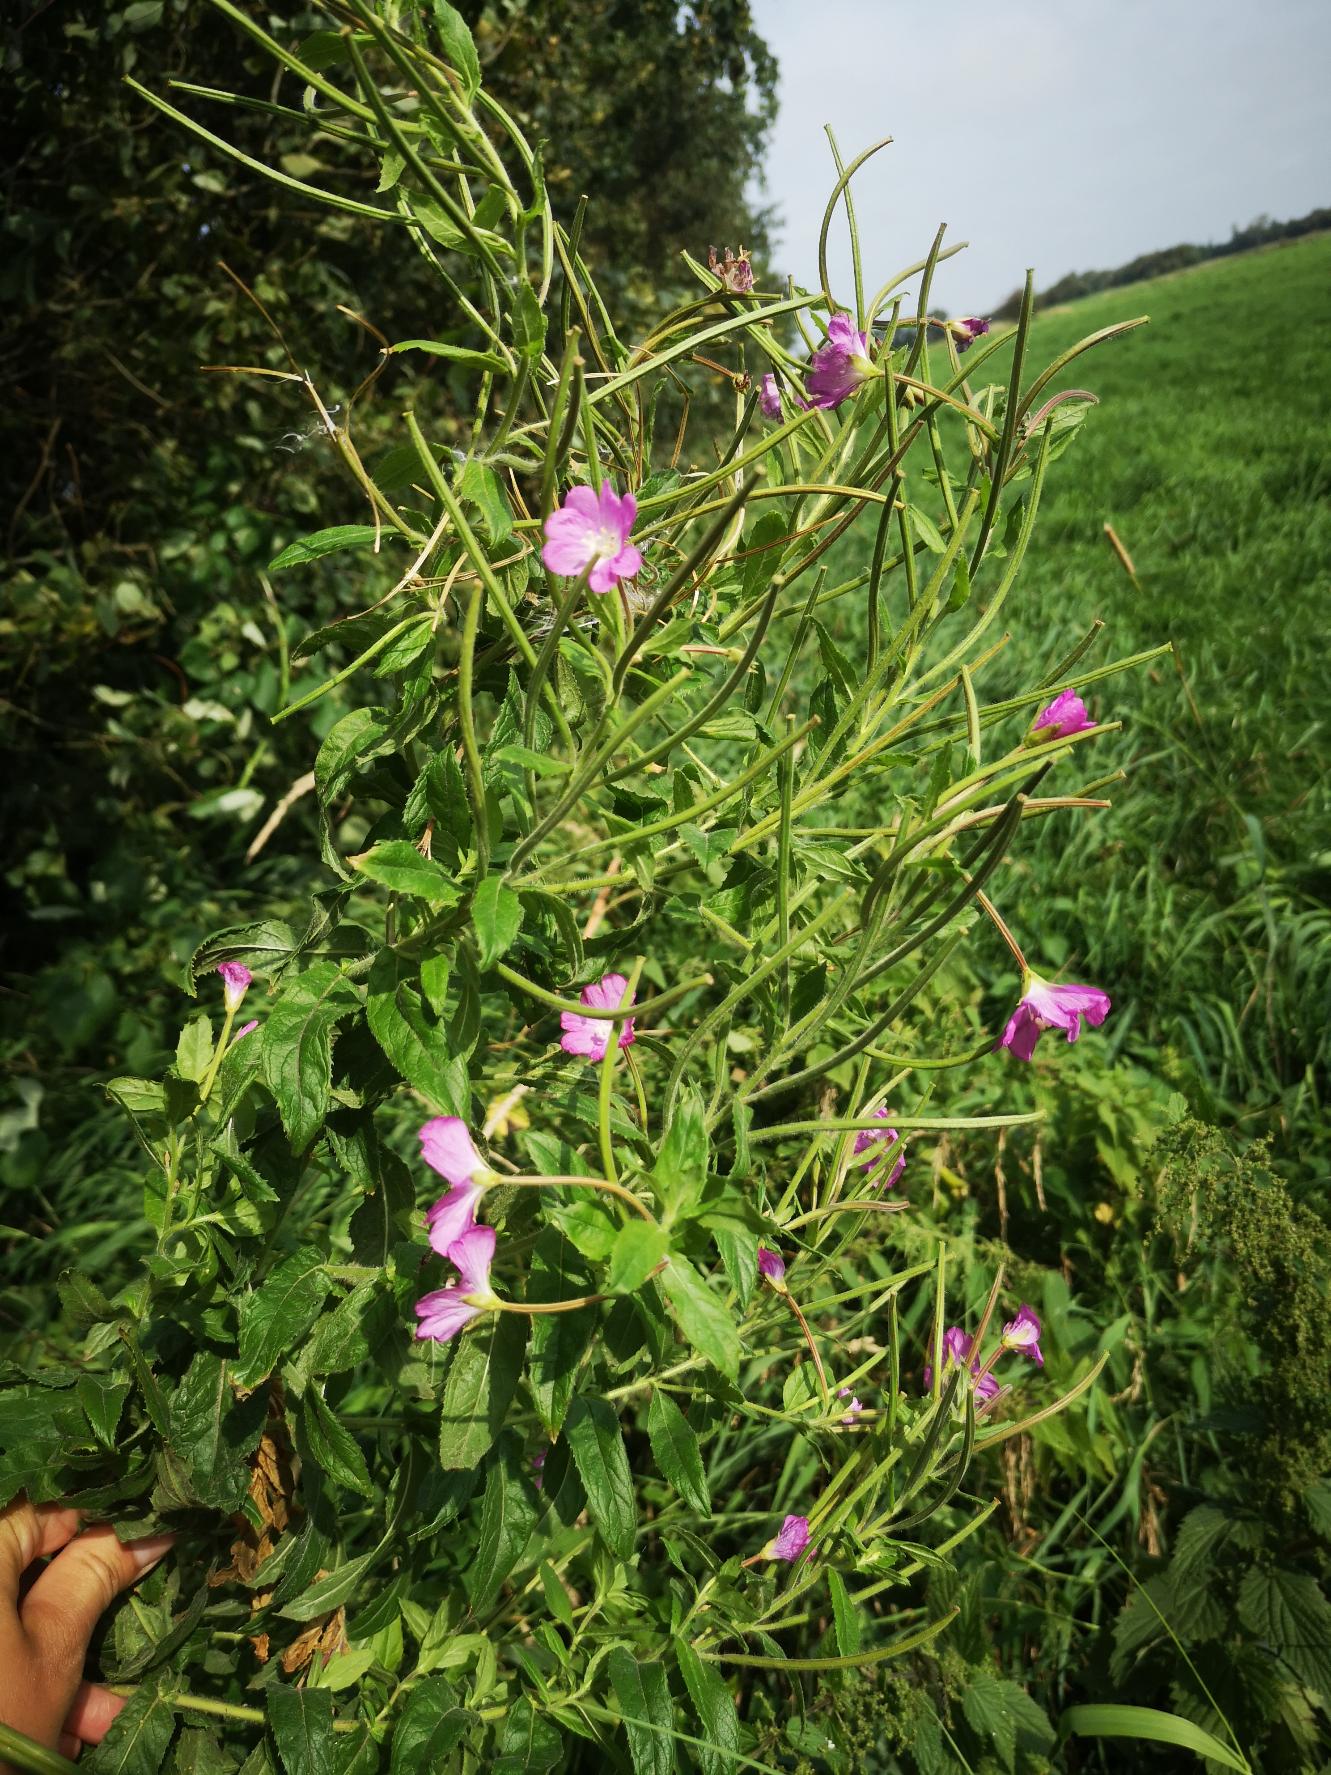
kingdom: Plantae
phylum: Tracheophyta
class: Magnoliopsida
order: Myrtales
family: Onagraceae
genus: Epilobium
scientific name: Epilobium hirsutum
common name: Lådden dueurt
